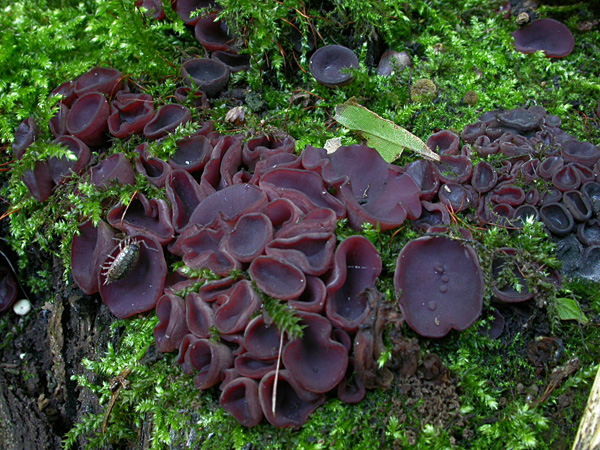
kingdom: Fungi
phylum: Ascomycota
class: Leotiomycetes
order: Helotiales
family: Gelatinodiscaceae
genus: Ascocoryne
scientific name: Ascocoryne cylichnium
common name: stor sejskive
